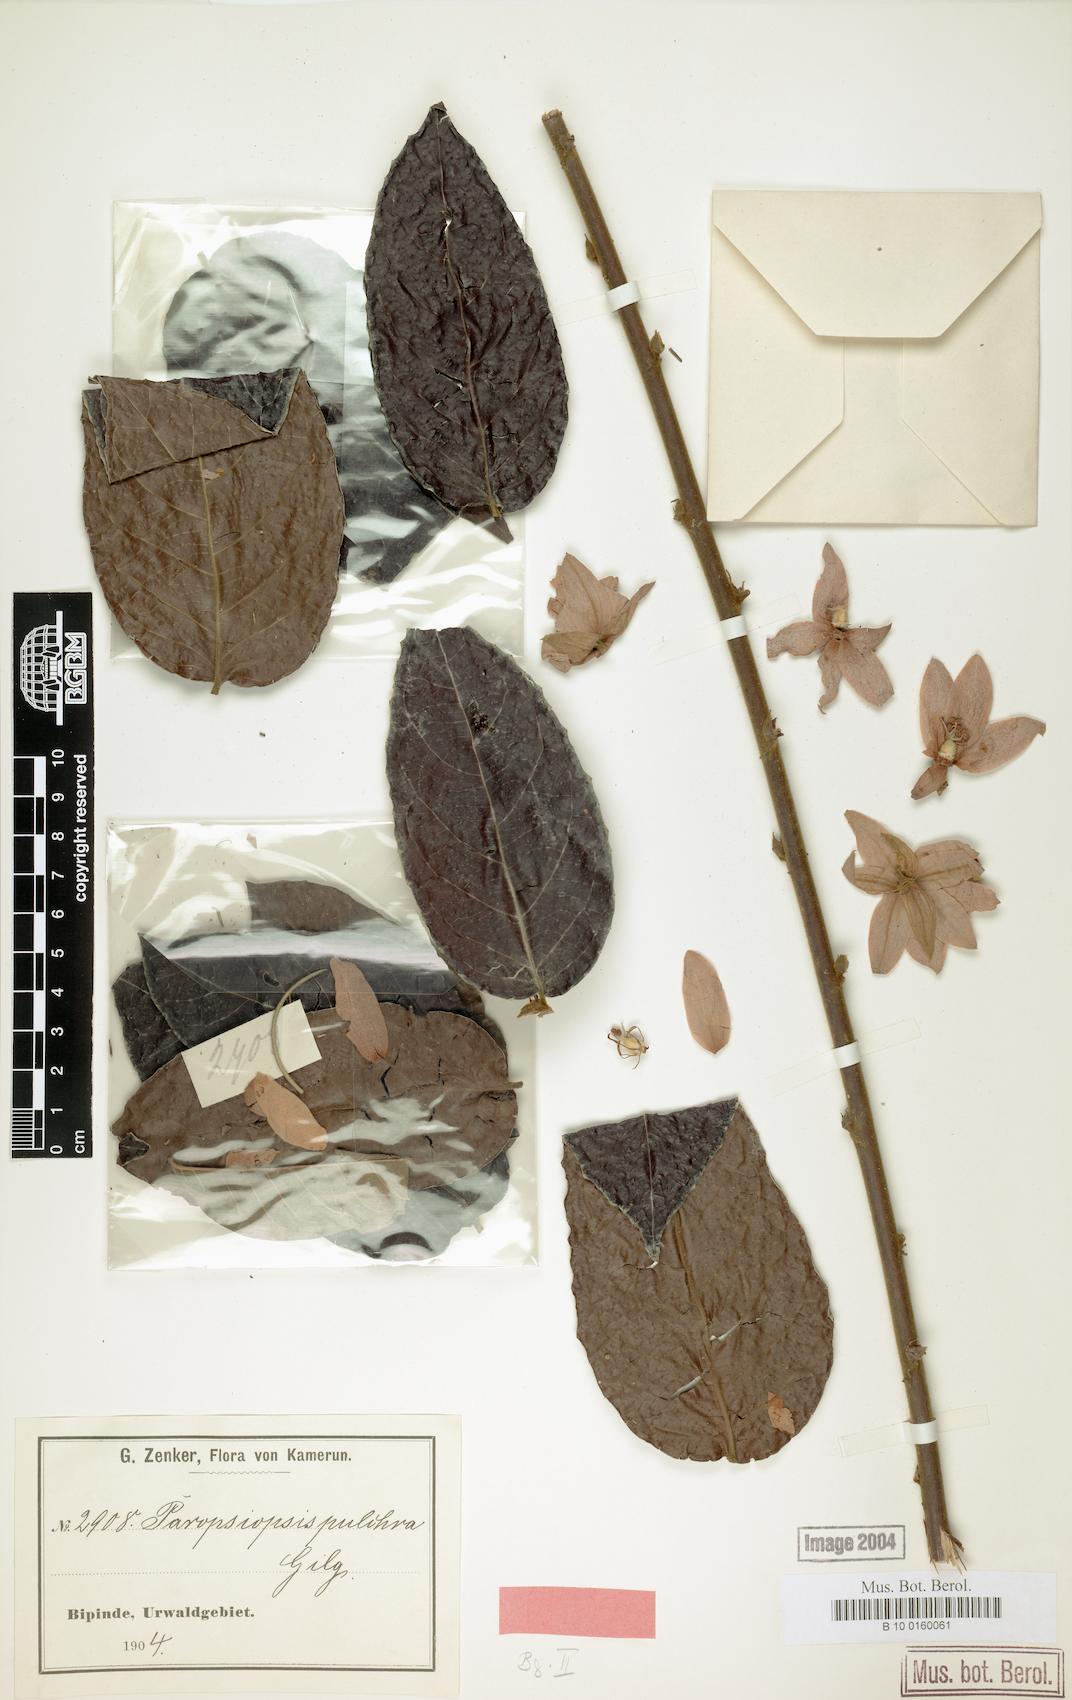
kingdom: Plantae
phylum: Tracheophyta
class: Magnoliopsida
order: Malpighiales
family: Passifloraceae
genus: Paropsiopsis
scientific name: Paropsiopsis pulchra
